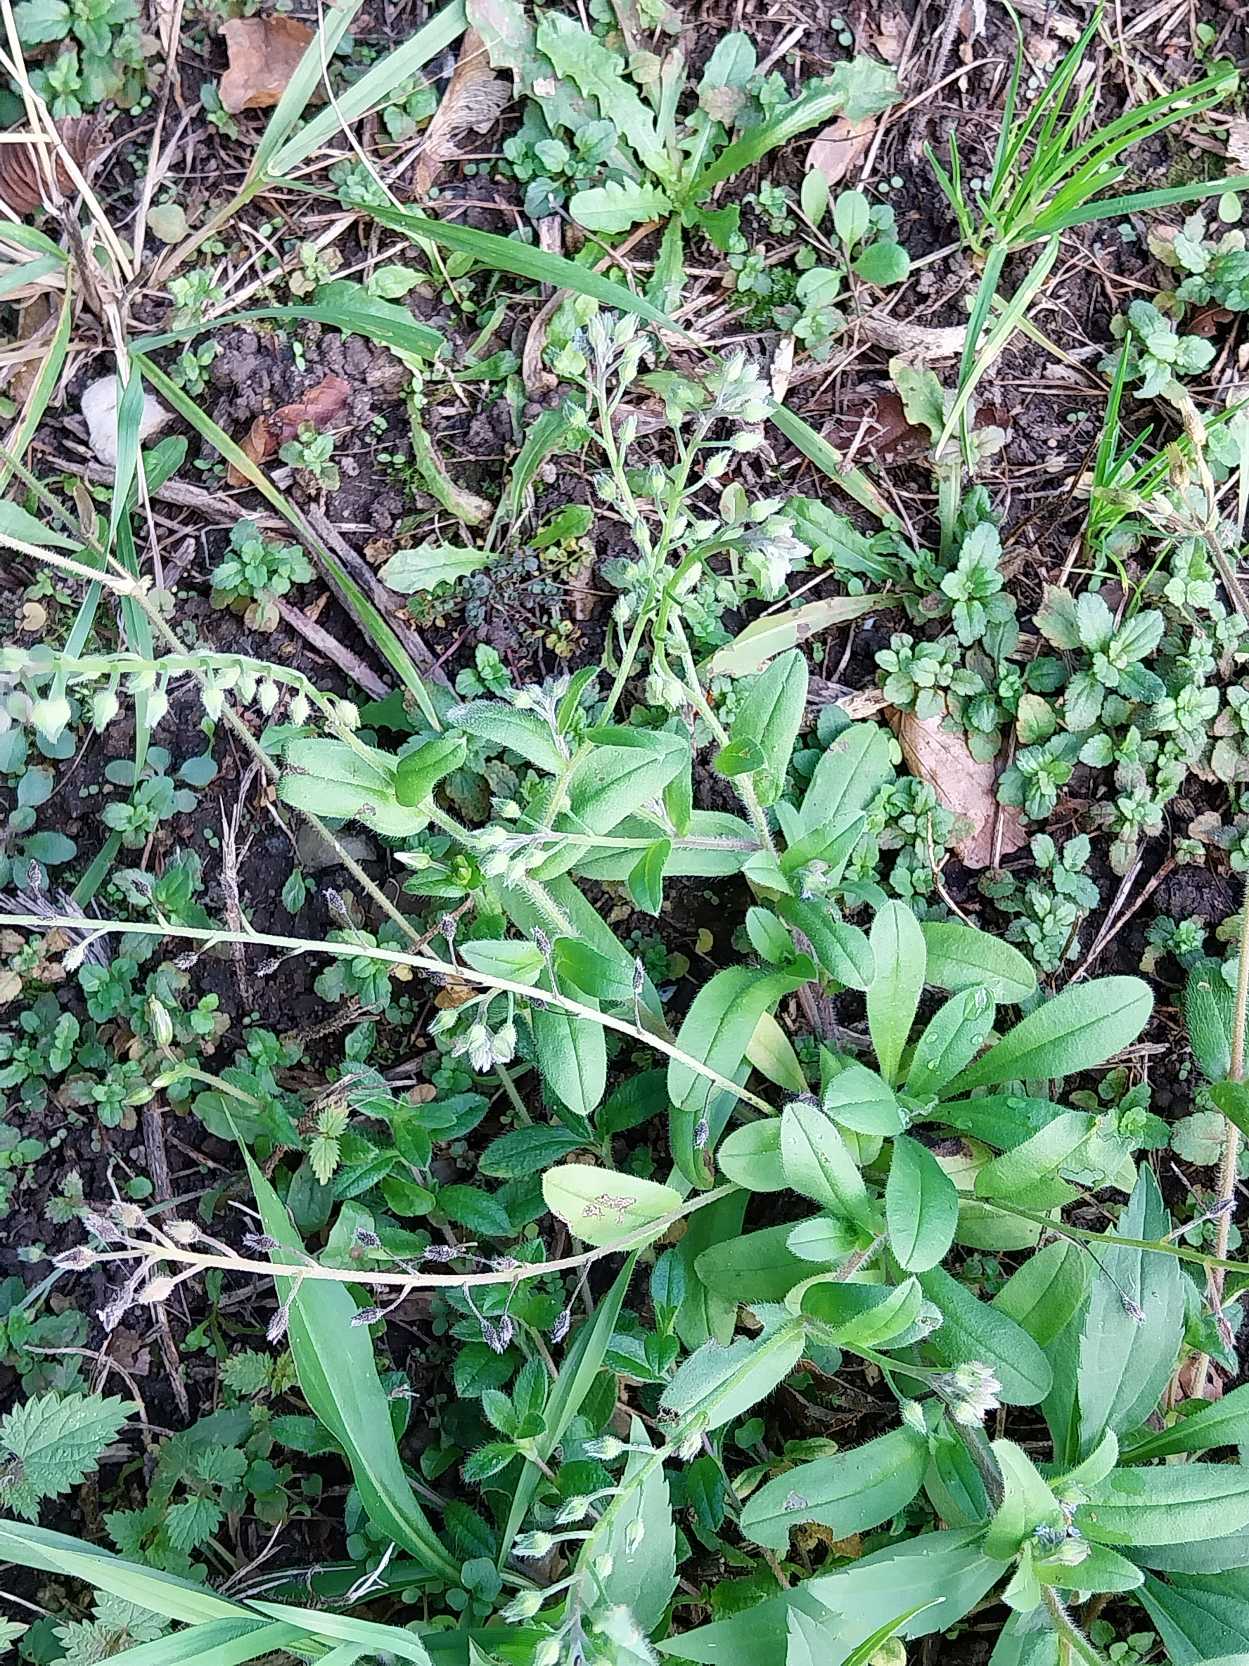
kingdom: Plantae
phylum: Tracheophyta
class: Magnoliopsida
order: Boraginales
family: Boraginaceae
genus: Myosotis
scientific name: Myosotis arvensis
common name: Mark-forglemmigej
